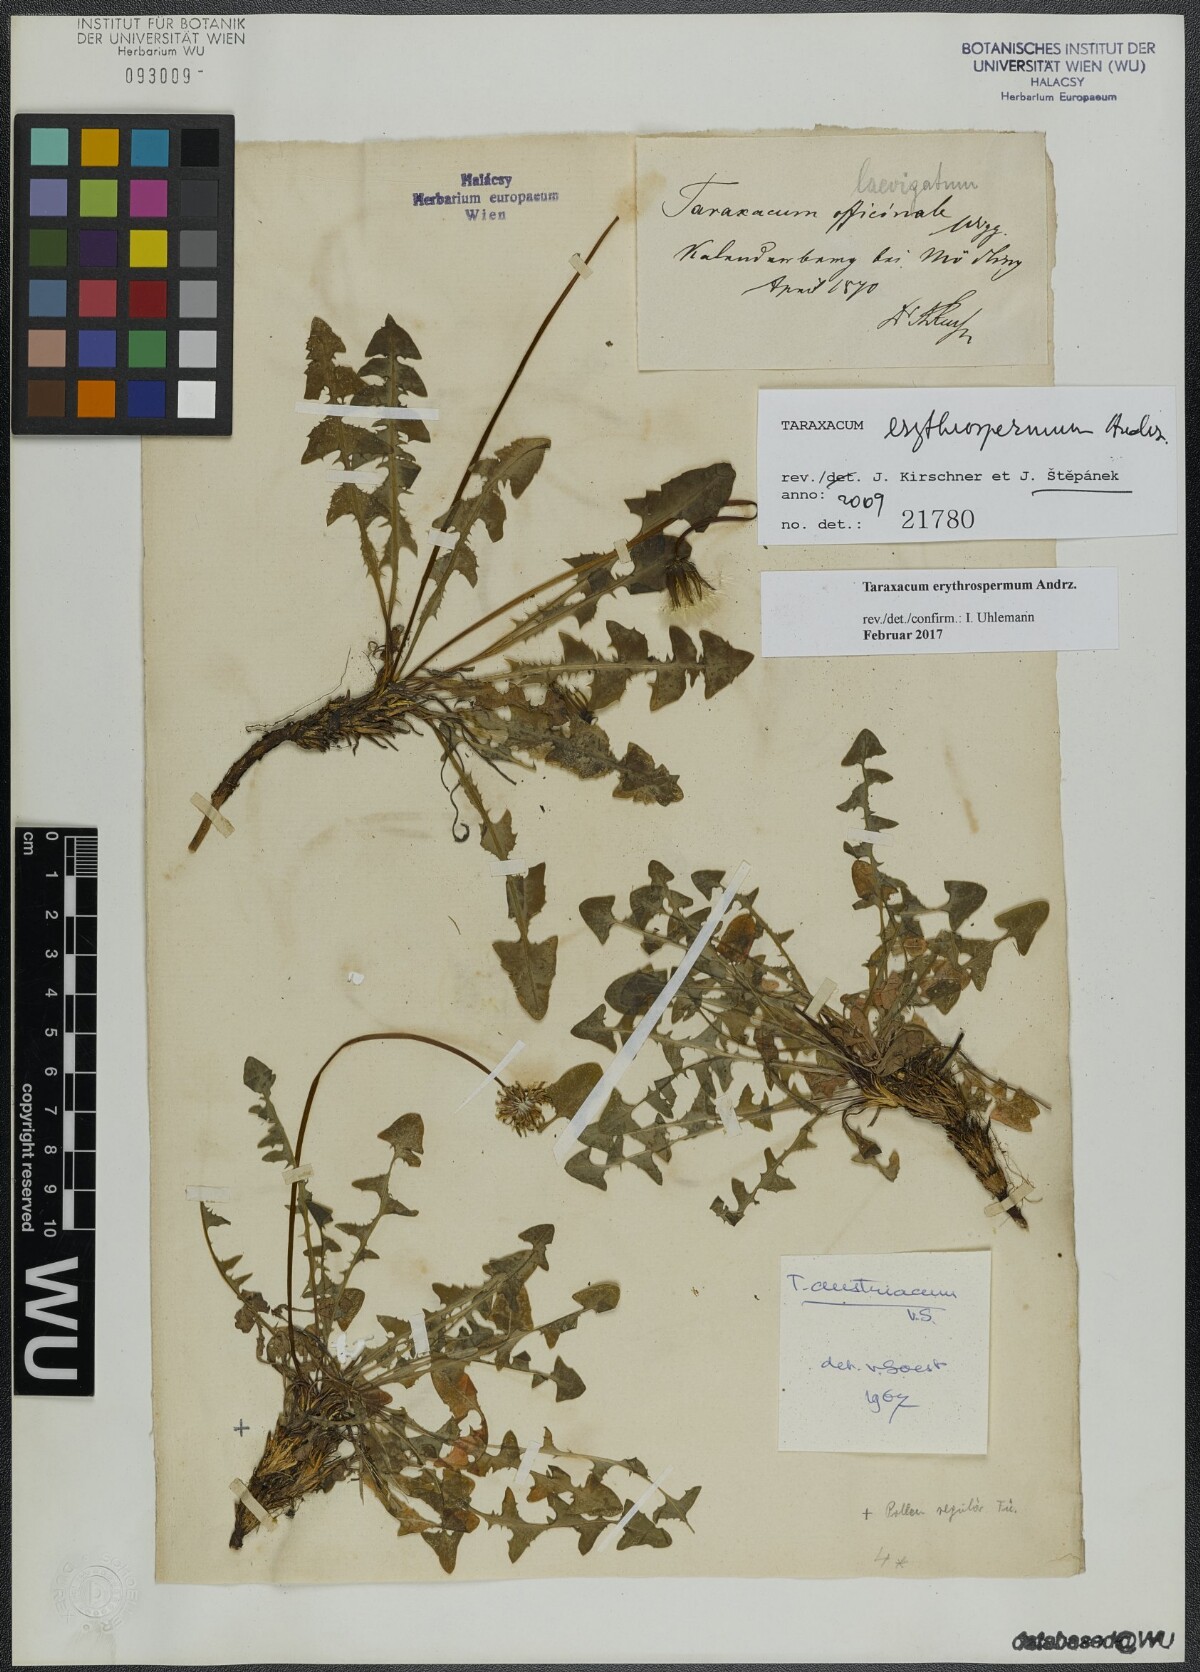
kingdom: Plantae
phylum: Tracheophyta
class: Magnoliopsida
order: Asterales
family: Asteraceae
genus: Taraxacum
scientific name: Taraxacum erythrospermum
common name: Rock dandelion
